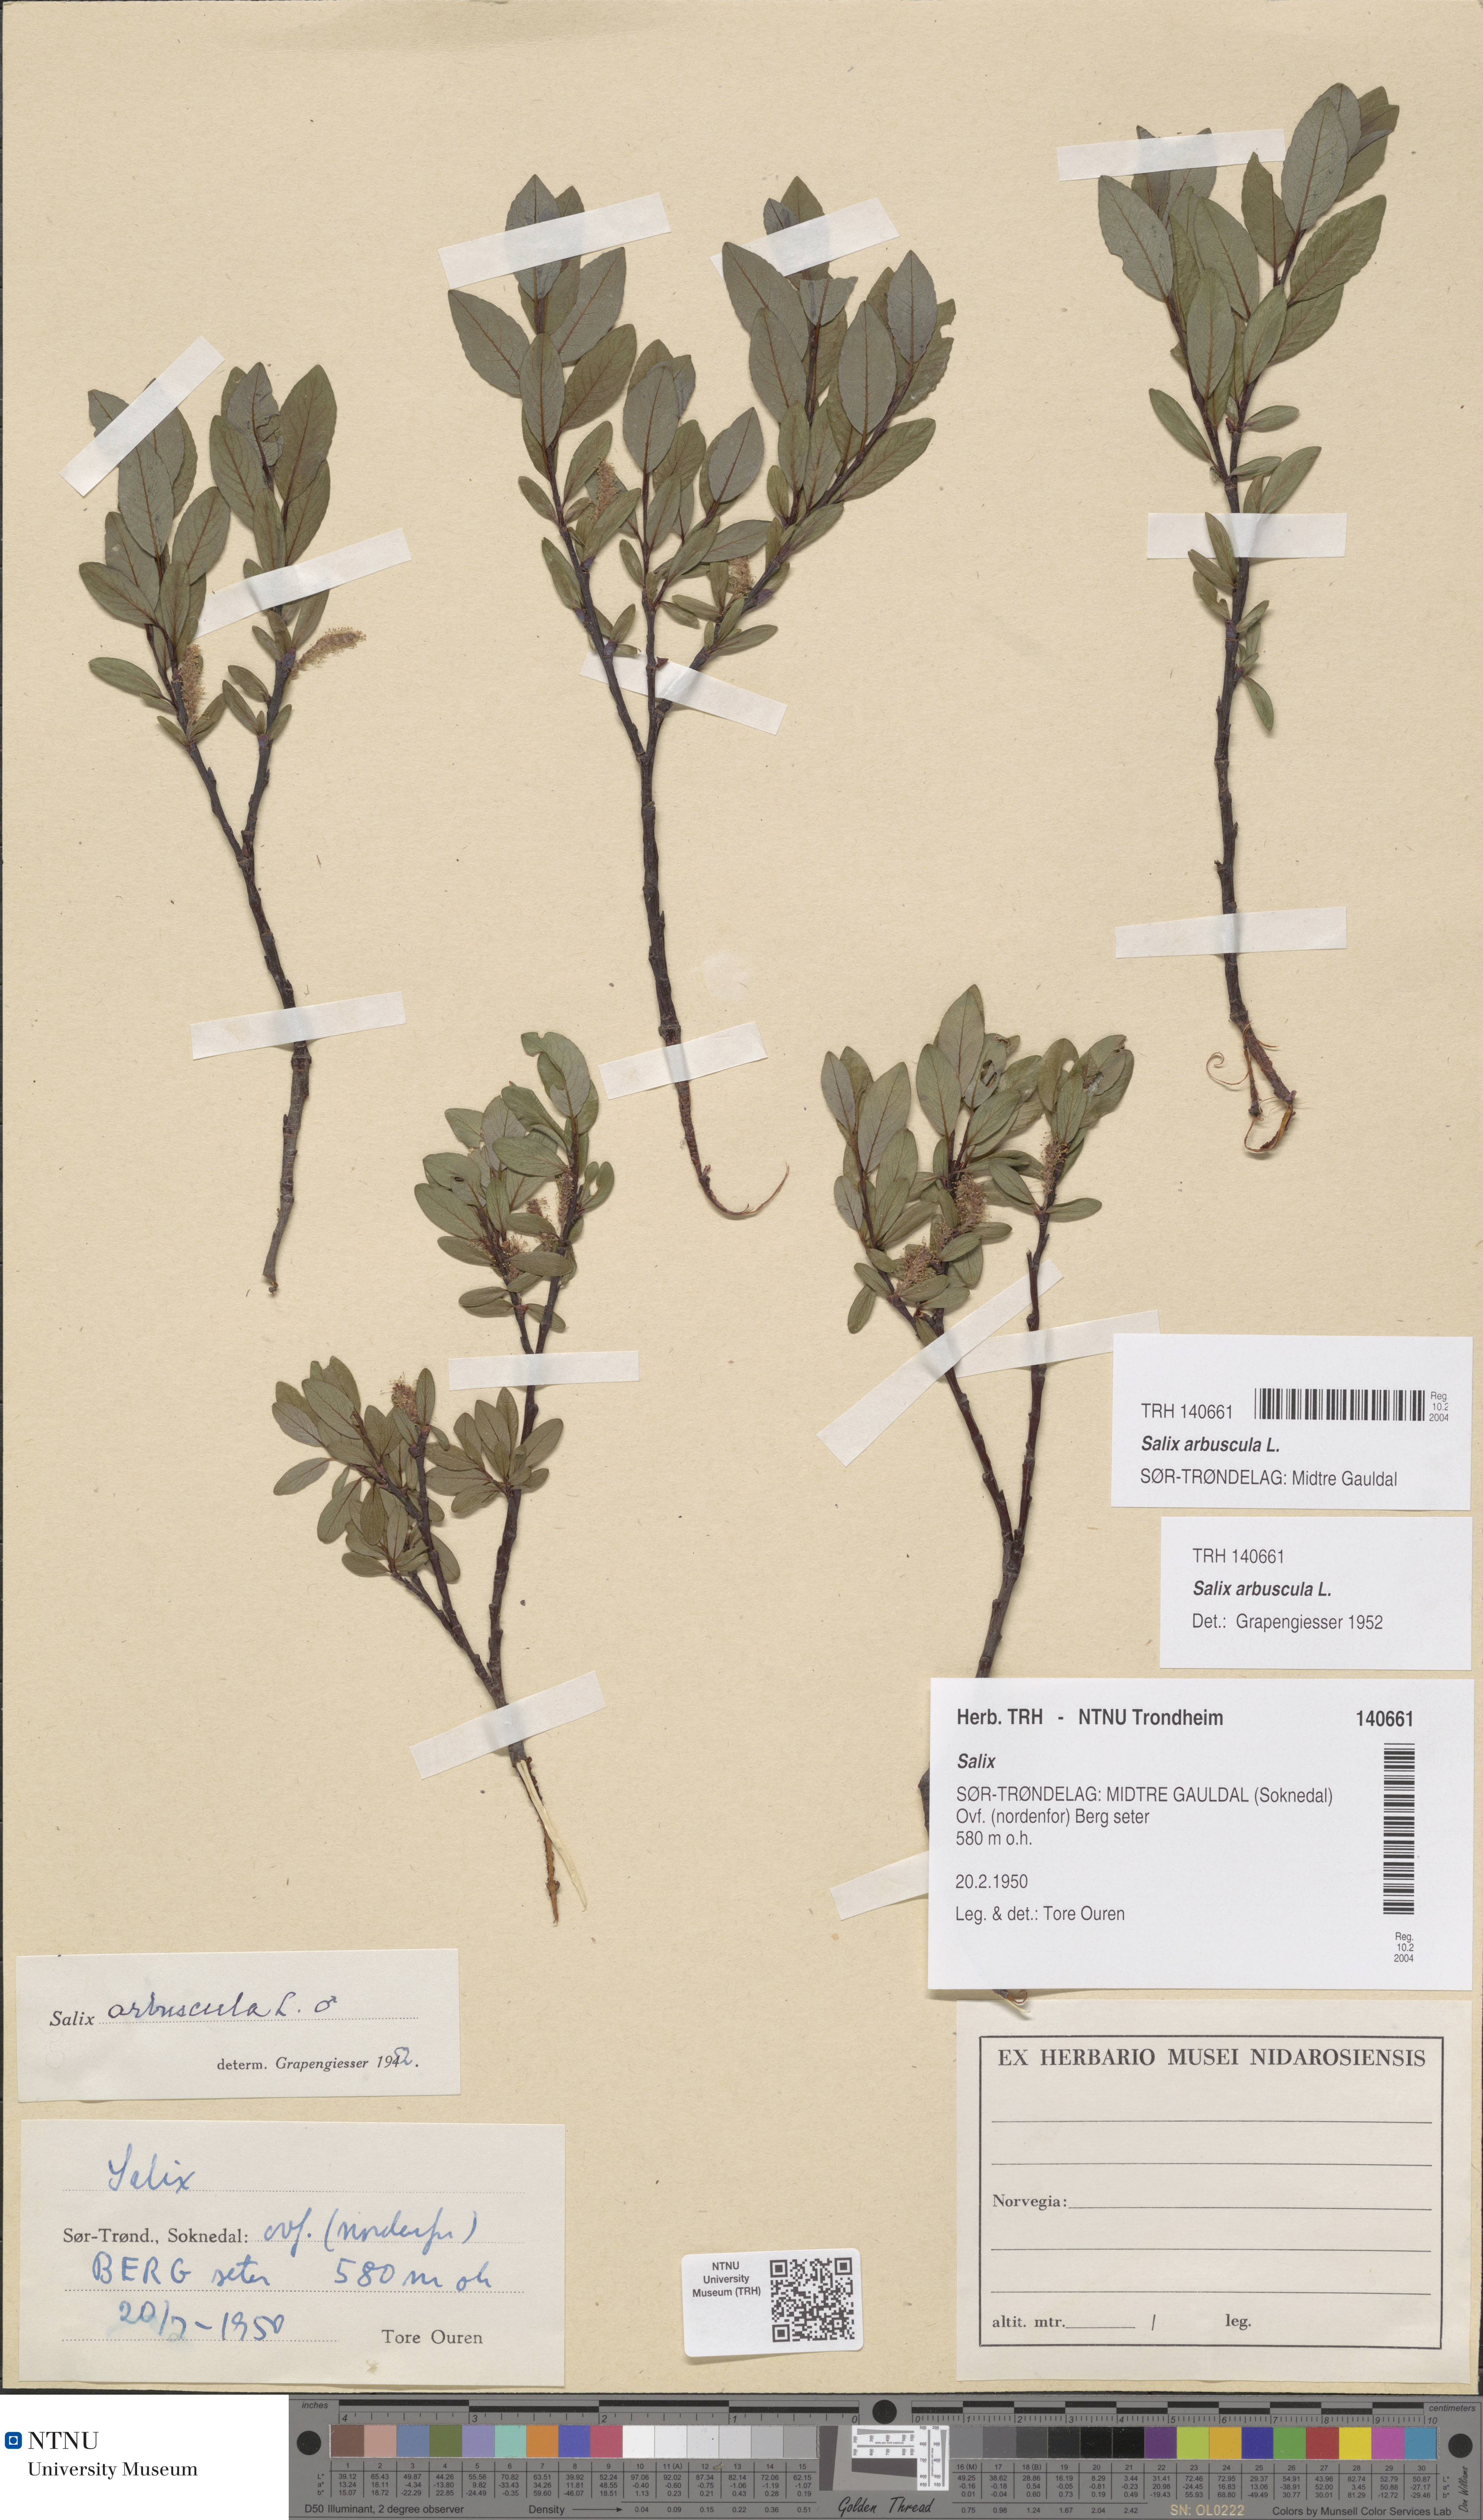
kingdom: Plantae
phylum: Tracheophyta
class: Magnoliopsida
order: Malpighiales
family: Salicaceae
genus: Salix
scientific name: Salix arbuscula
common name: Mountain willow
